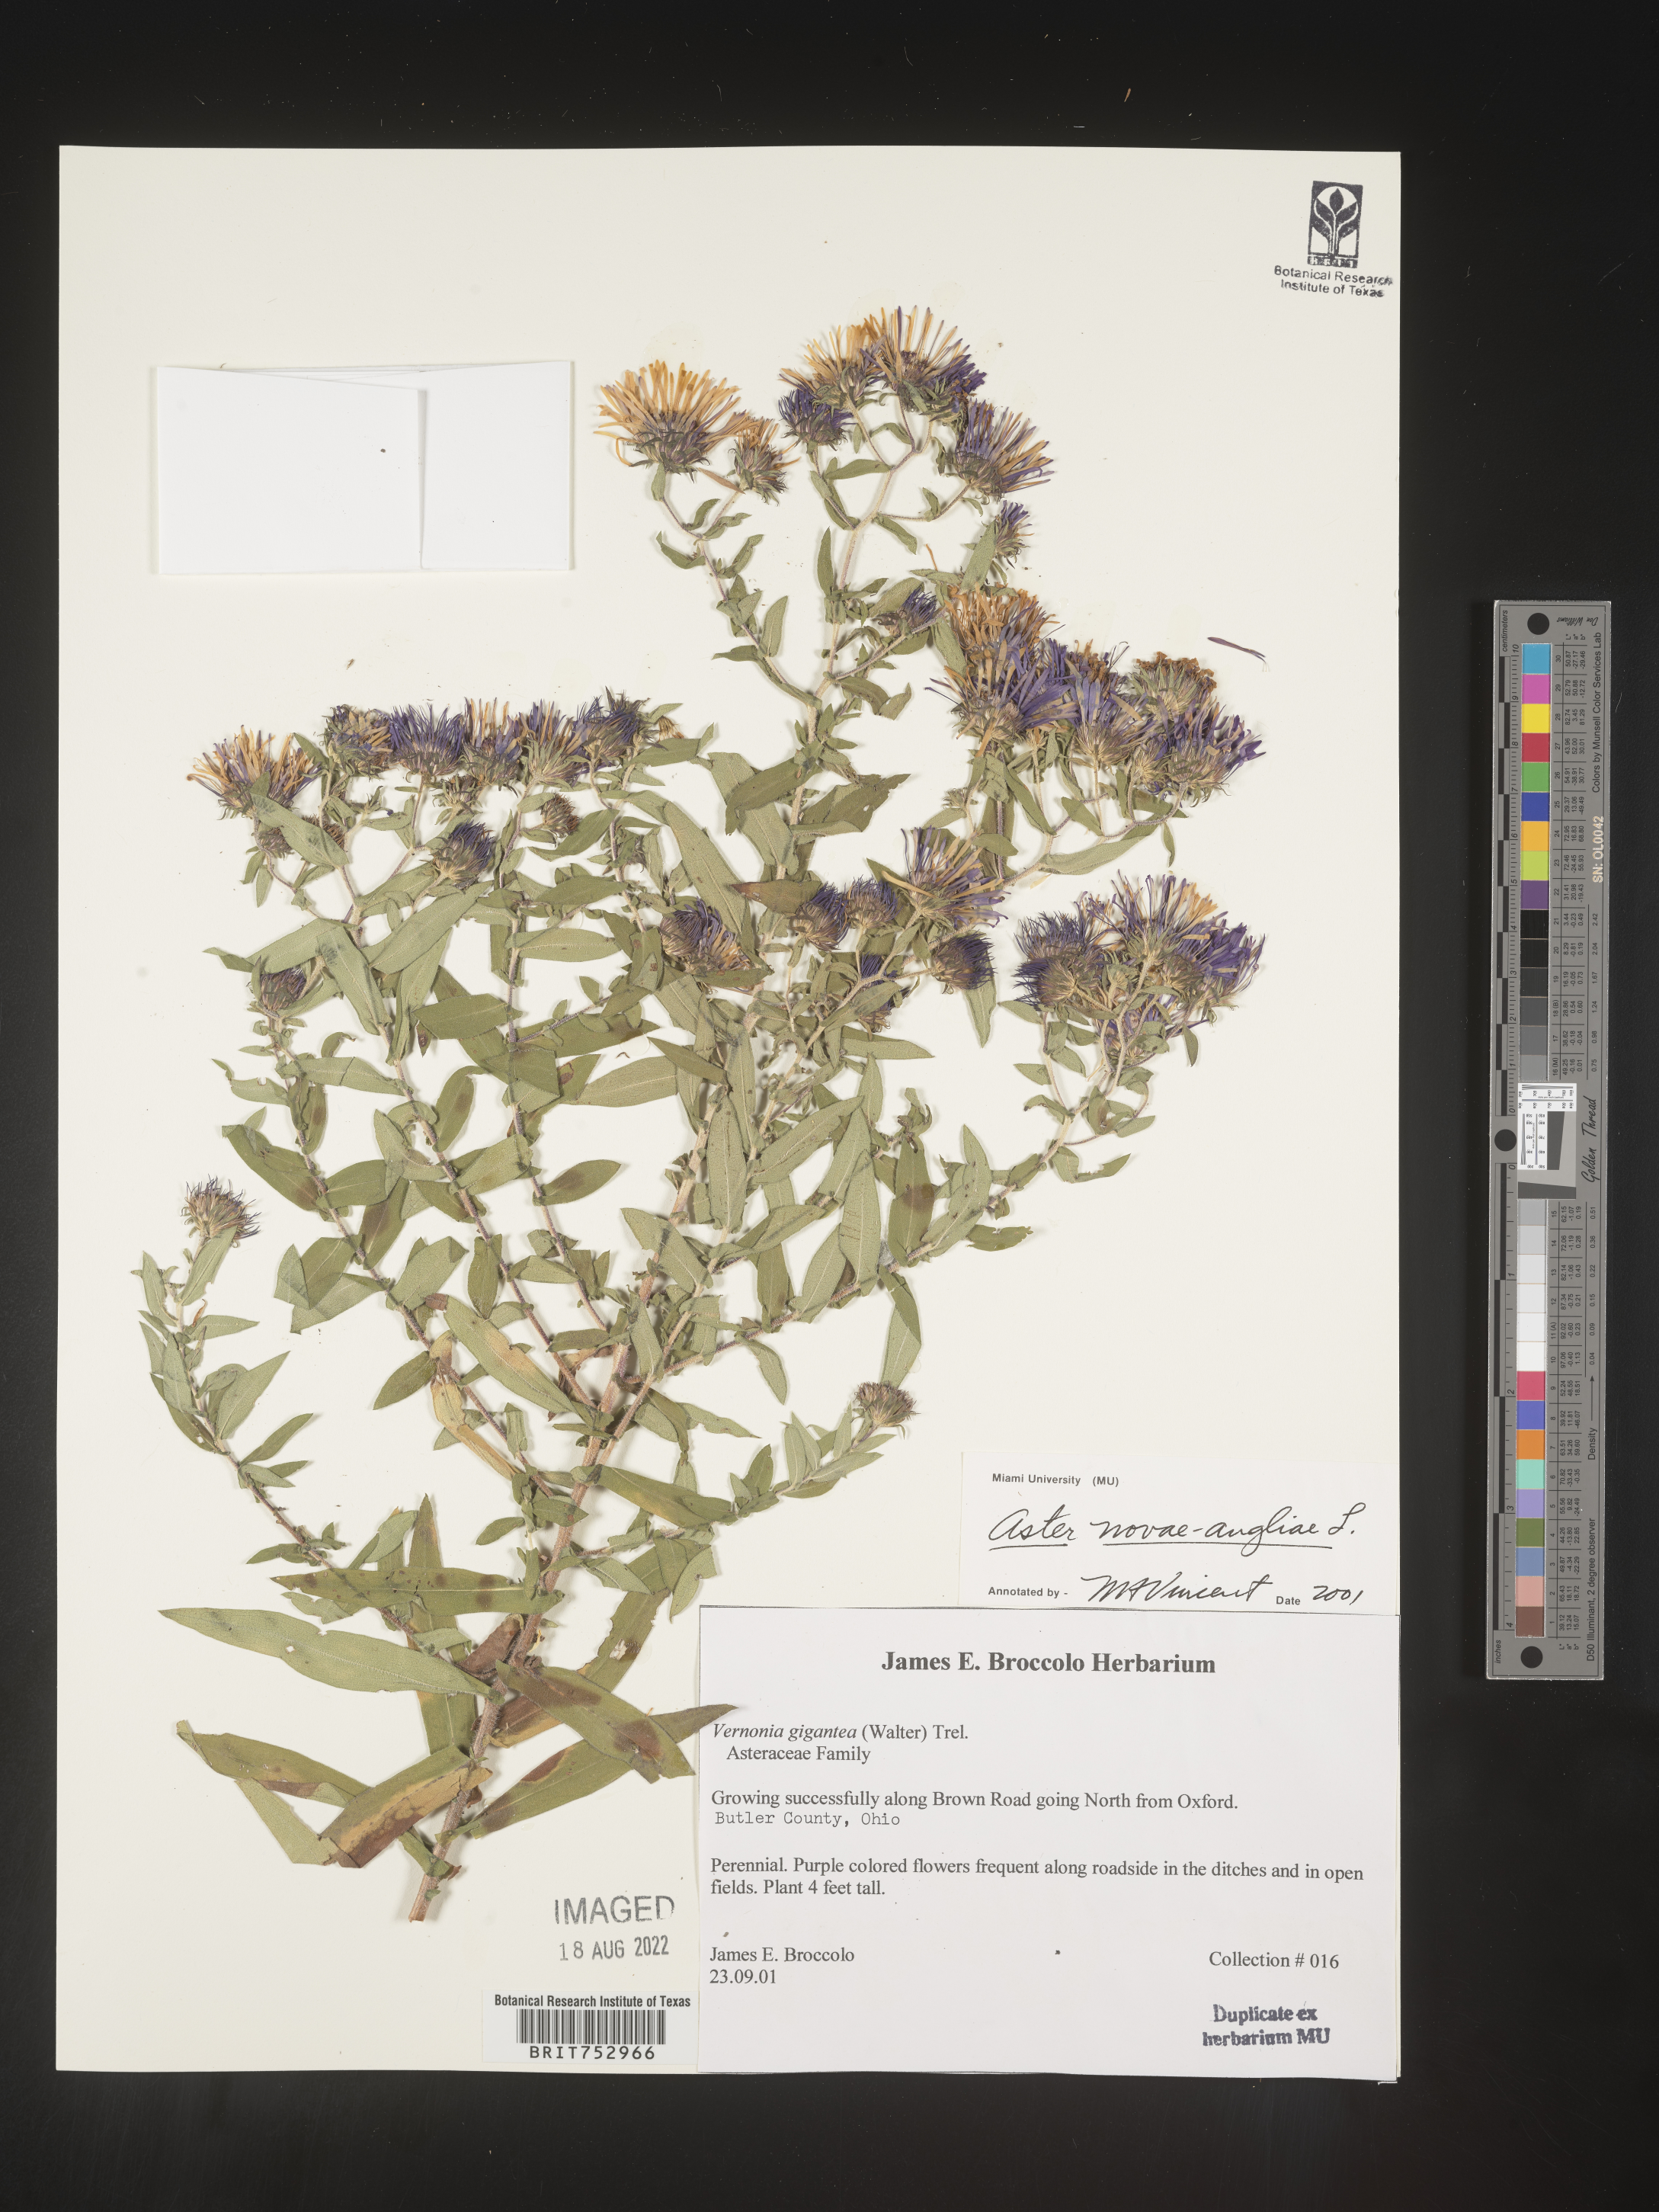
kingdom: Plantae
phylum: Tracheophyta
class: Magnoliopsida
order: Asterales
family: Asteraceae
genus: Symphyotrichum
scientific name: Symphyotrichum novae-angliae
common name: Michaelmas daisy
